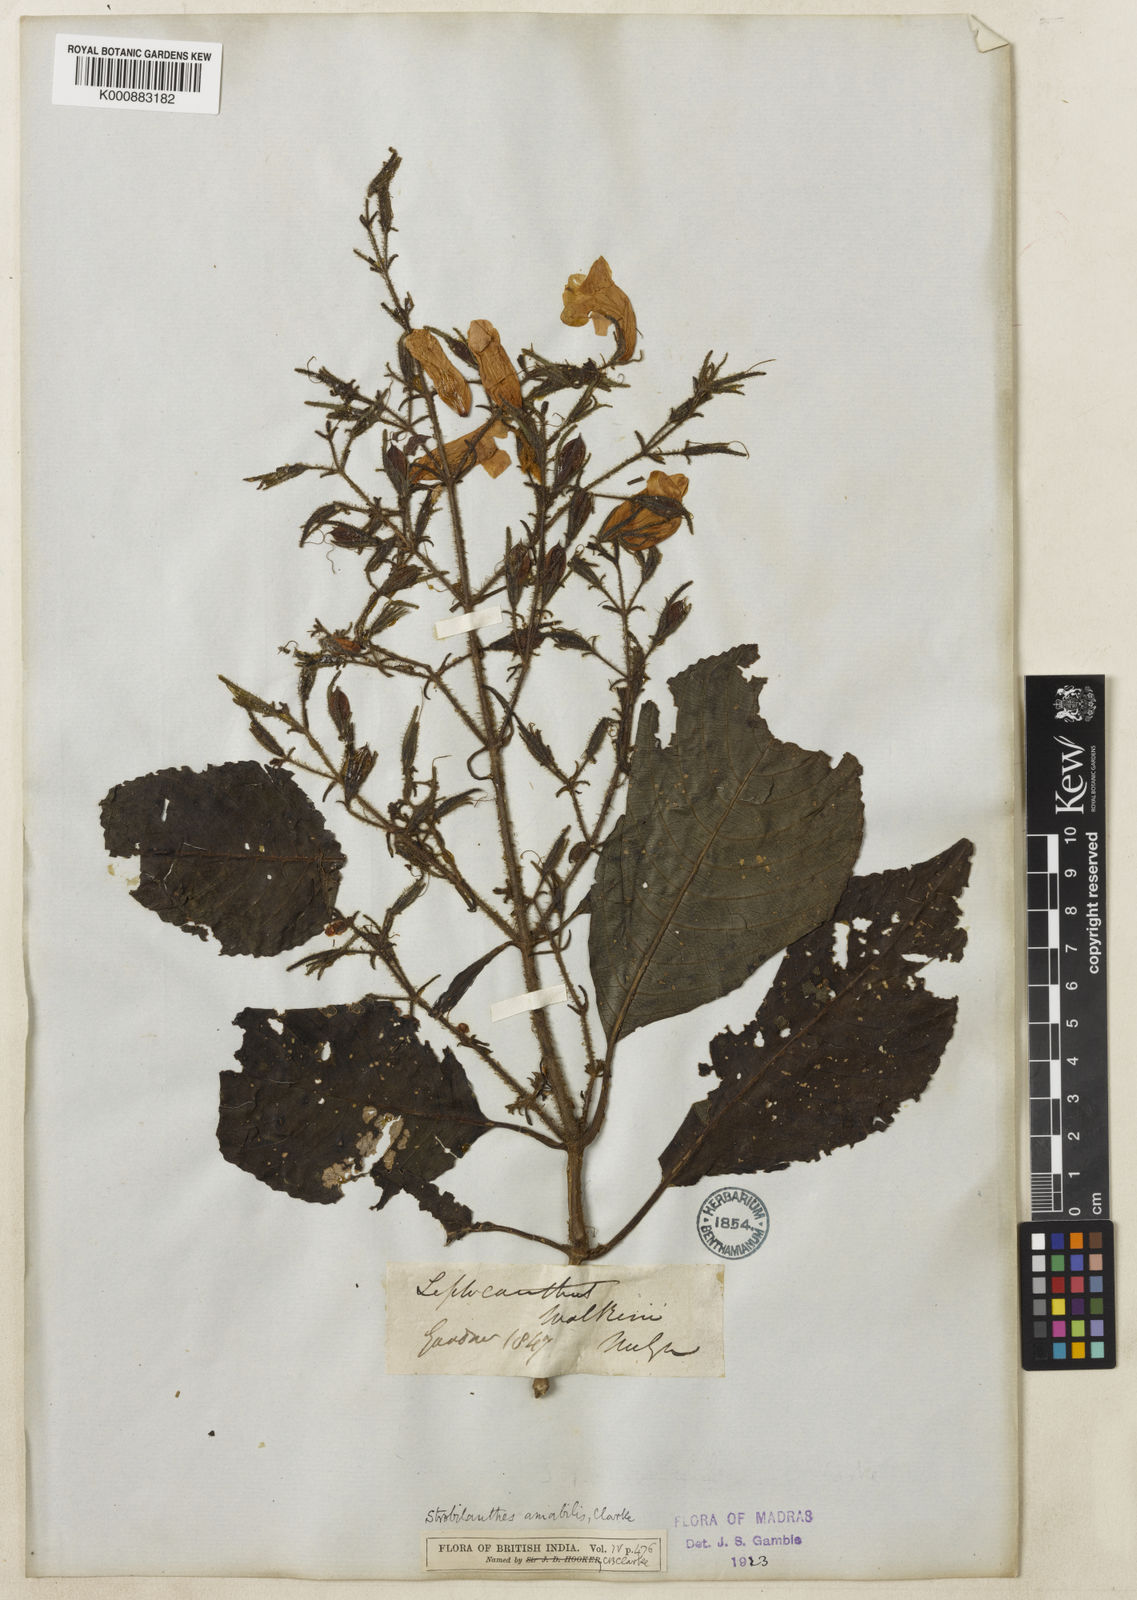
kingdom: Plantae
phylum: Tracheophyta
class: Magnoliopsida
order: Lamiales
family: Acanthaceae
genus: Strobilanthes
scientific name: Strobilanthes amabilis
